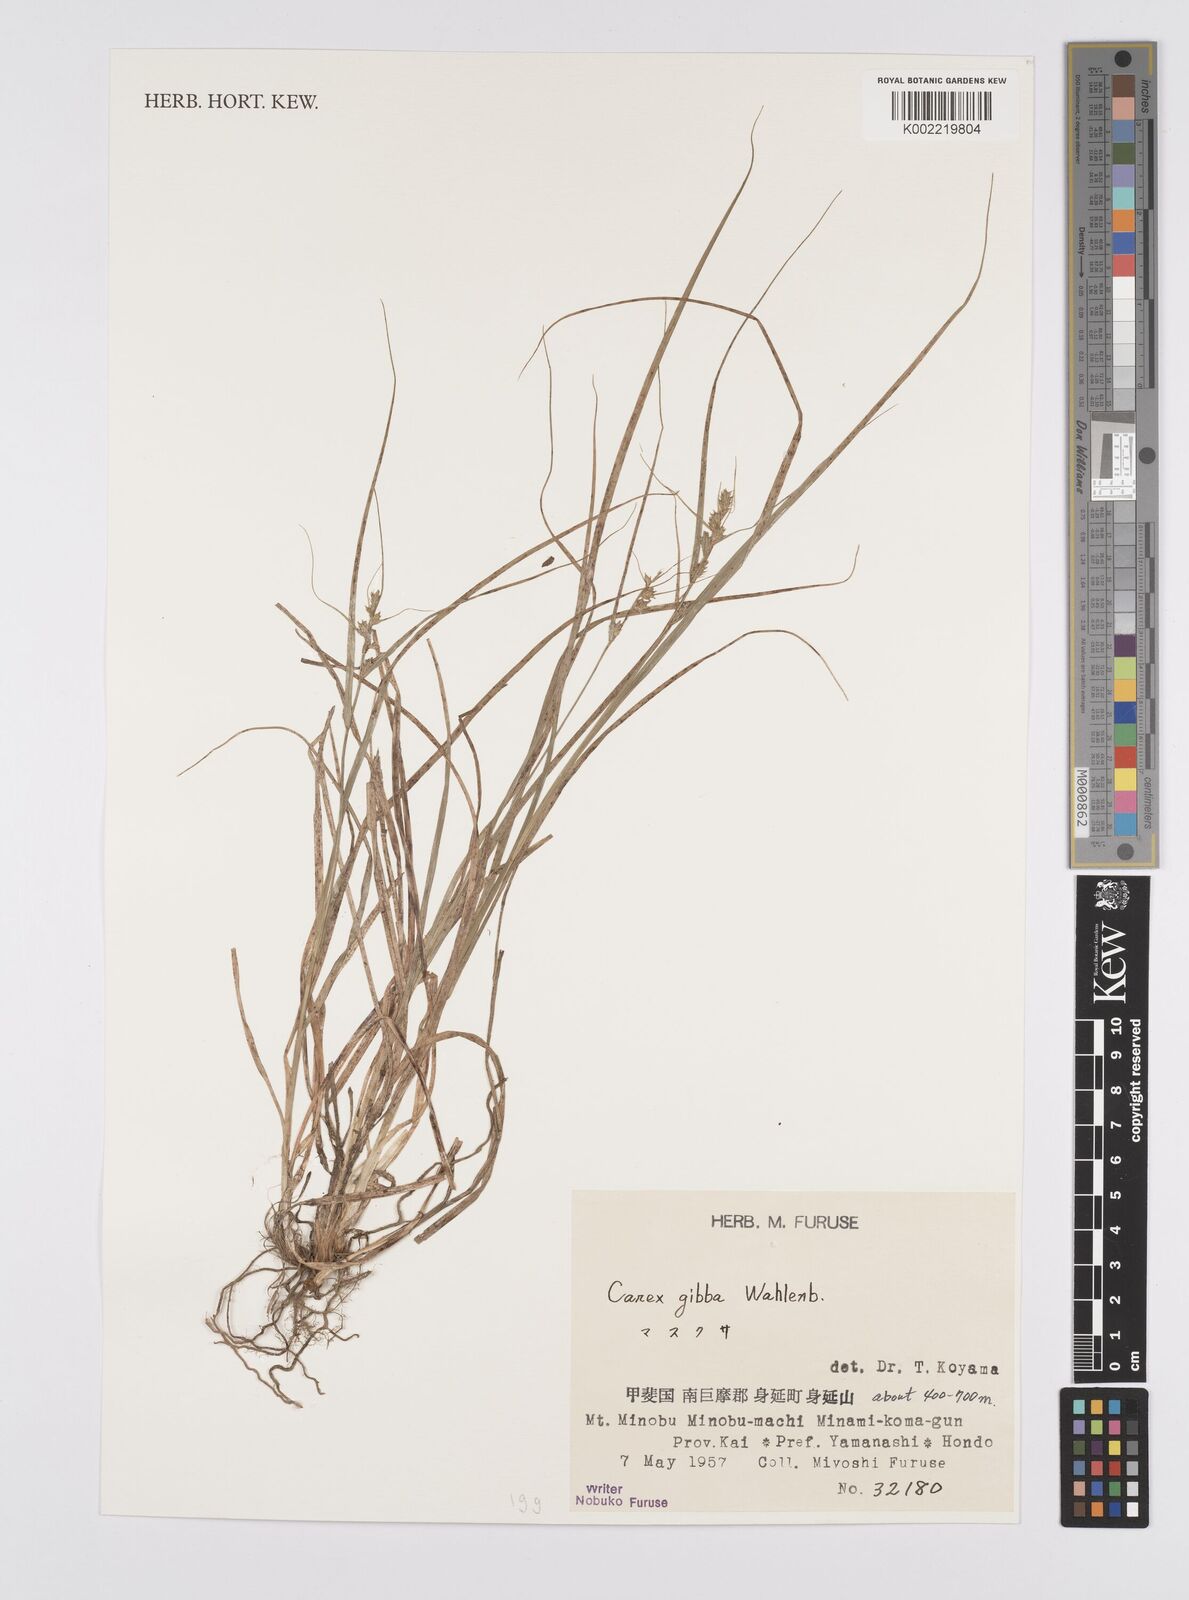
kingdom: Plantae
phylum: Tracheophyta
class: Liliopsida
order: Poales
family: Cyperaceae
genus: Carex
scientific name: Carex gibba
